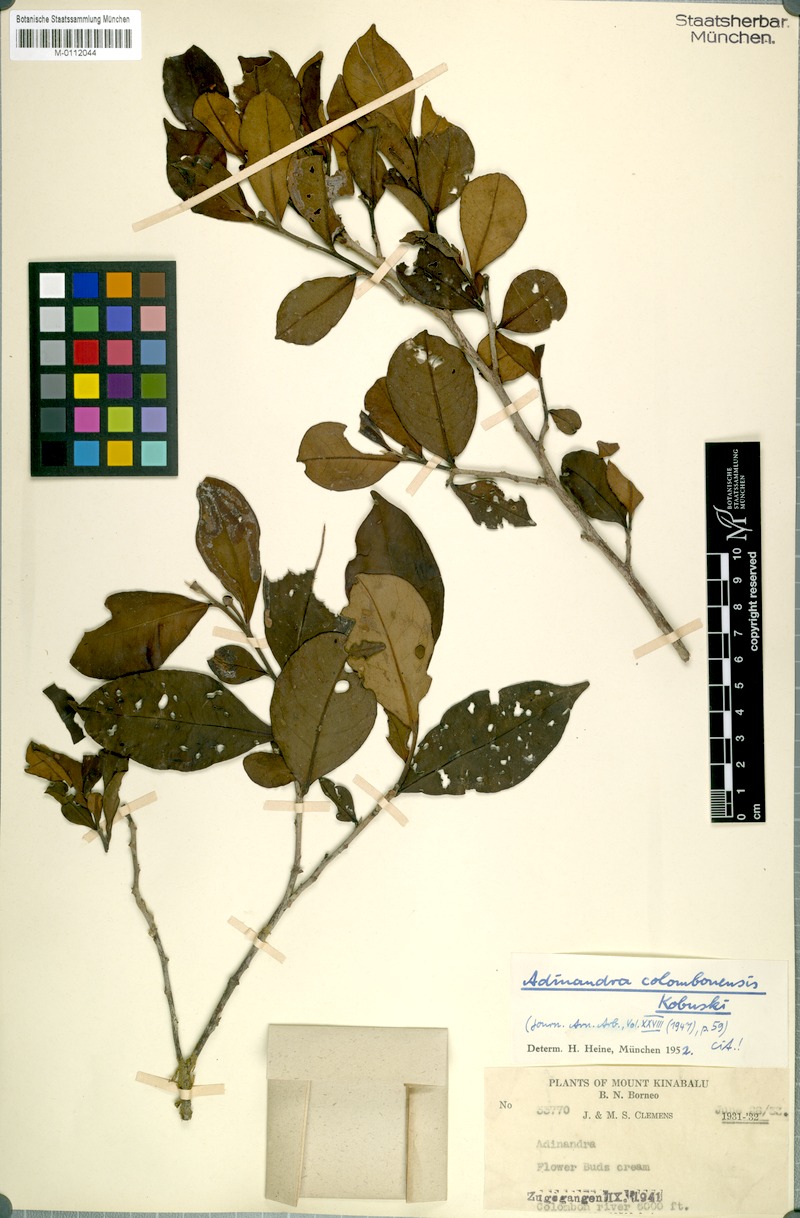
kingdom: Plantae
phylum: Tracheophyta
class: Magnoliopsida
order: Ericales
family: Pentaphylacaceae
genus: Adinandra
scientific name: Adinandra colombonensis
